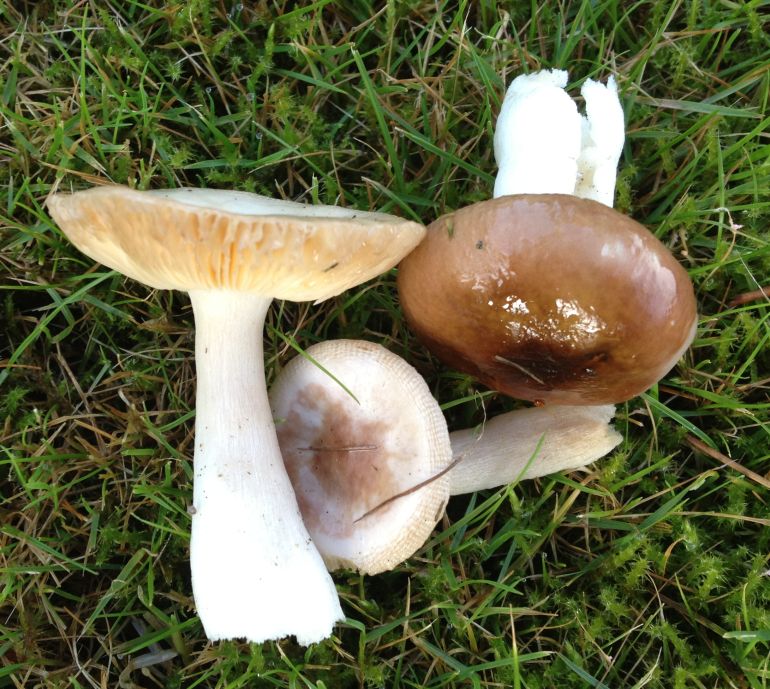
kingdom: Fungi
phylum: Basidiomycota
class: Agaricomycetes
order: Russulales
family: Russulaceae
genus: Russula
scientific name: Russula cessans
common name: fyrre-skørhat
